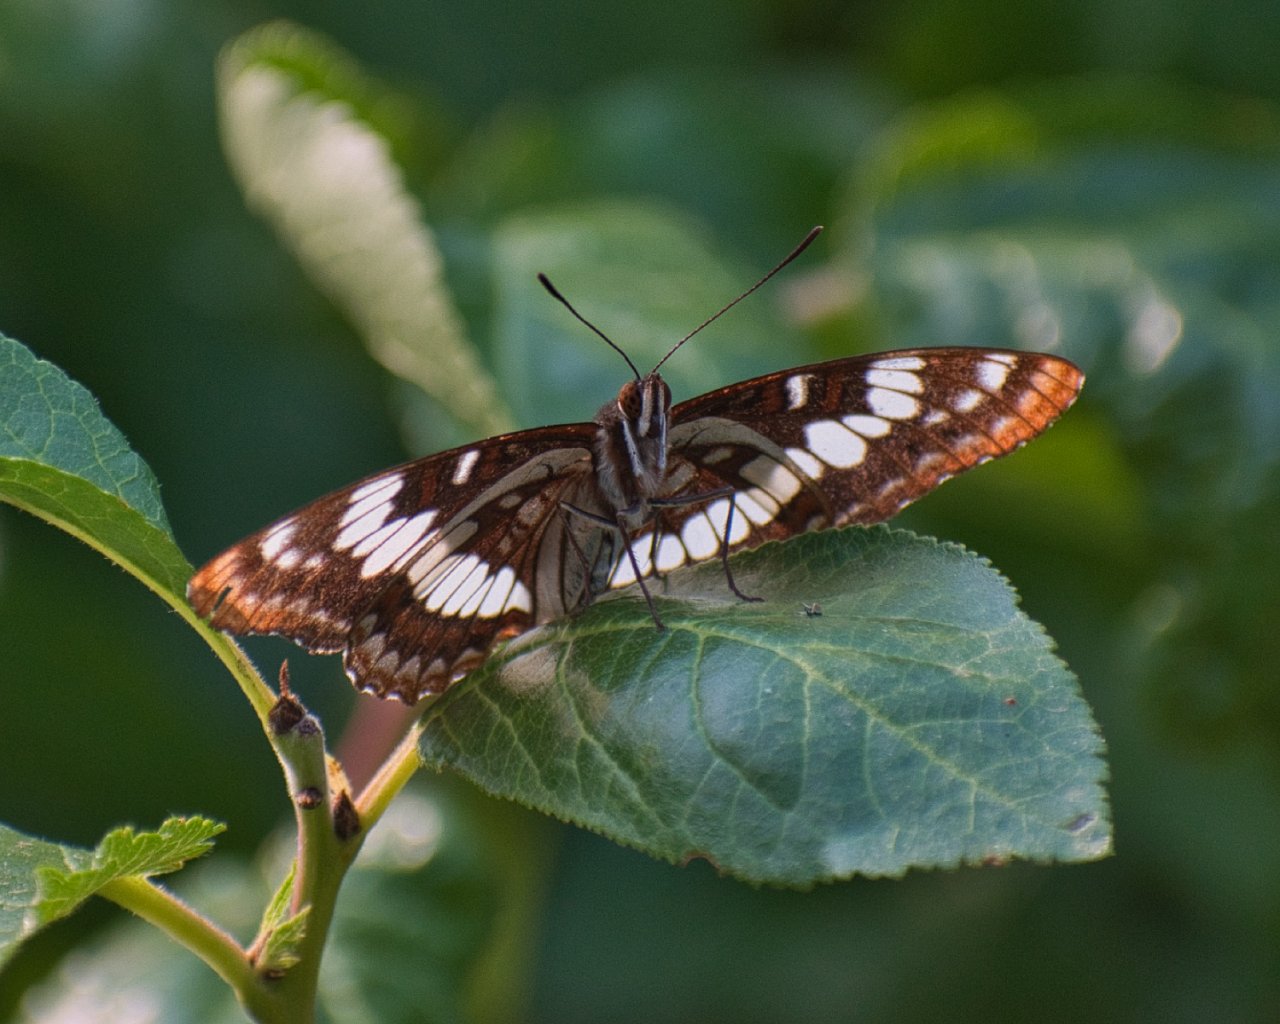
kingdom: Animalia
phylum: Arthropoda
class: Insecta
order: Lepidoptera
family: Nymphalidae
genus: Limenitis
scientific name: Limenitis lorquini
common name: Lorquin's Admiral
